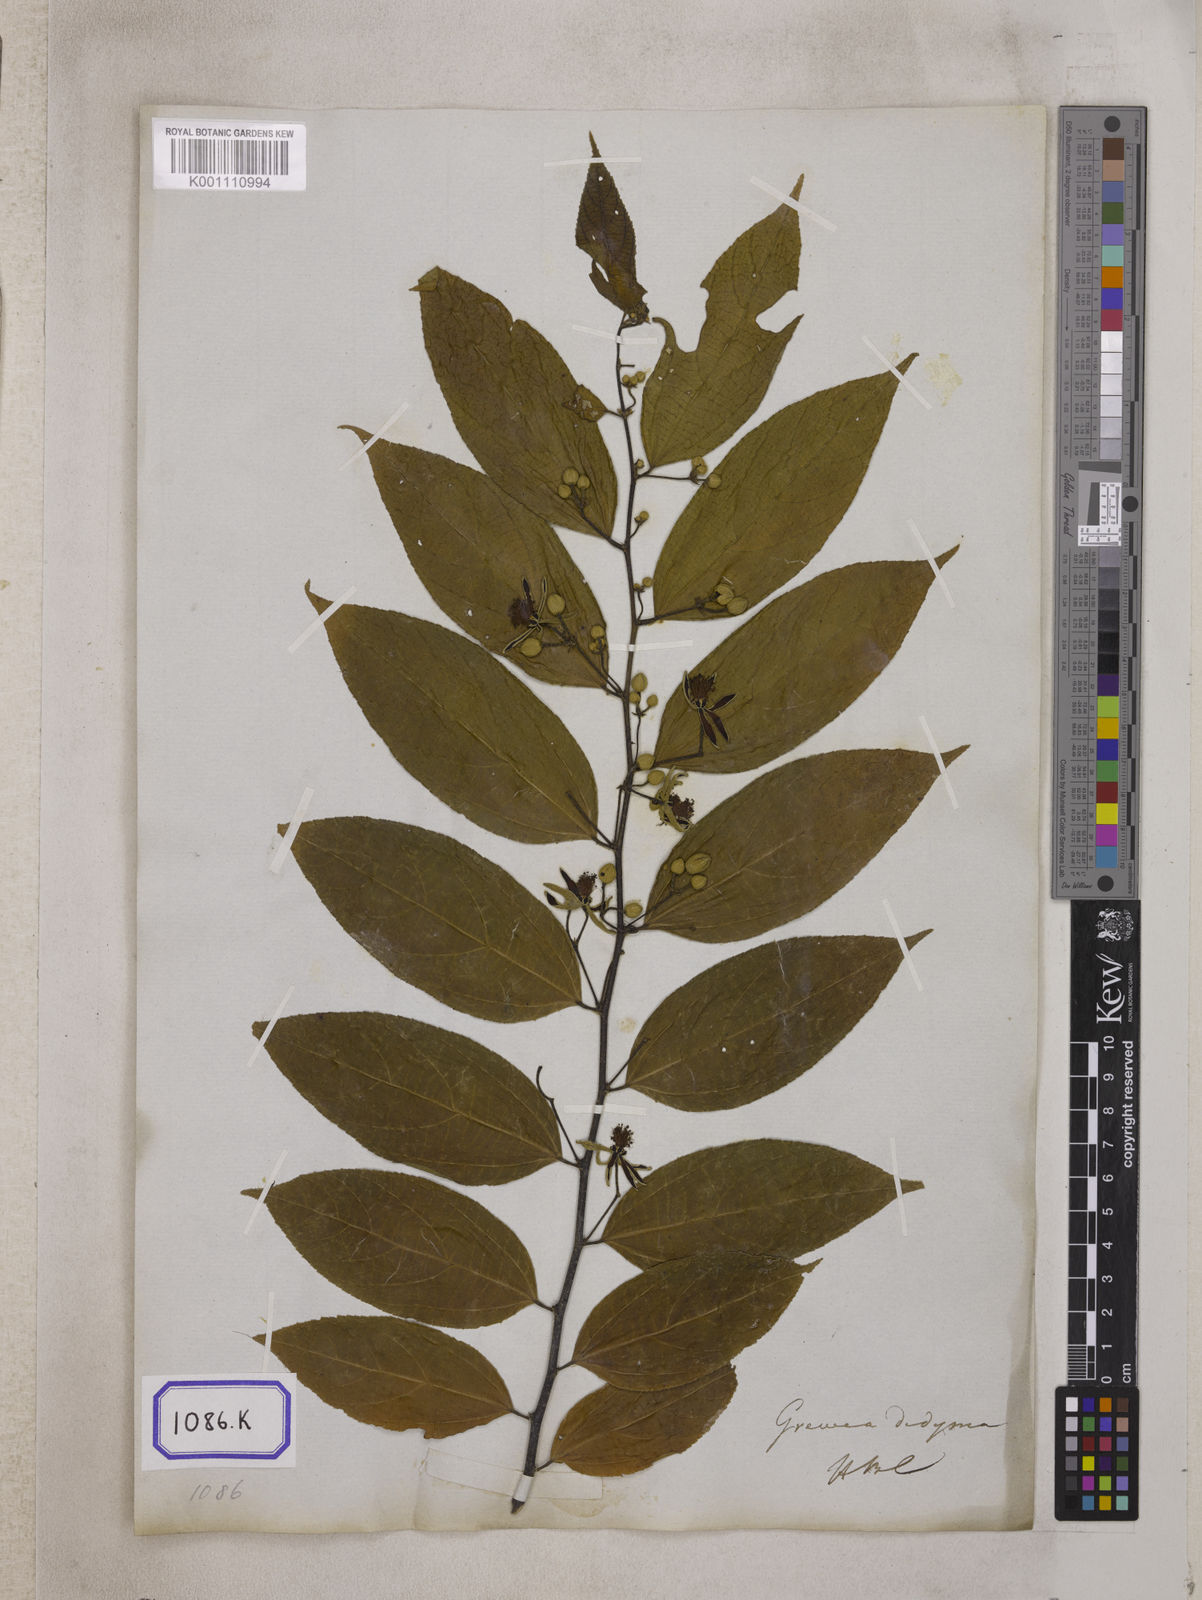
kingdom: Plantae
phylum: Tracheophyta
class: Magnoliopsida
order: Malvales
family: Malvaceae
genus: Grewia
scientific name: Grewia
